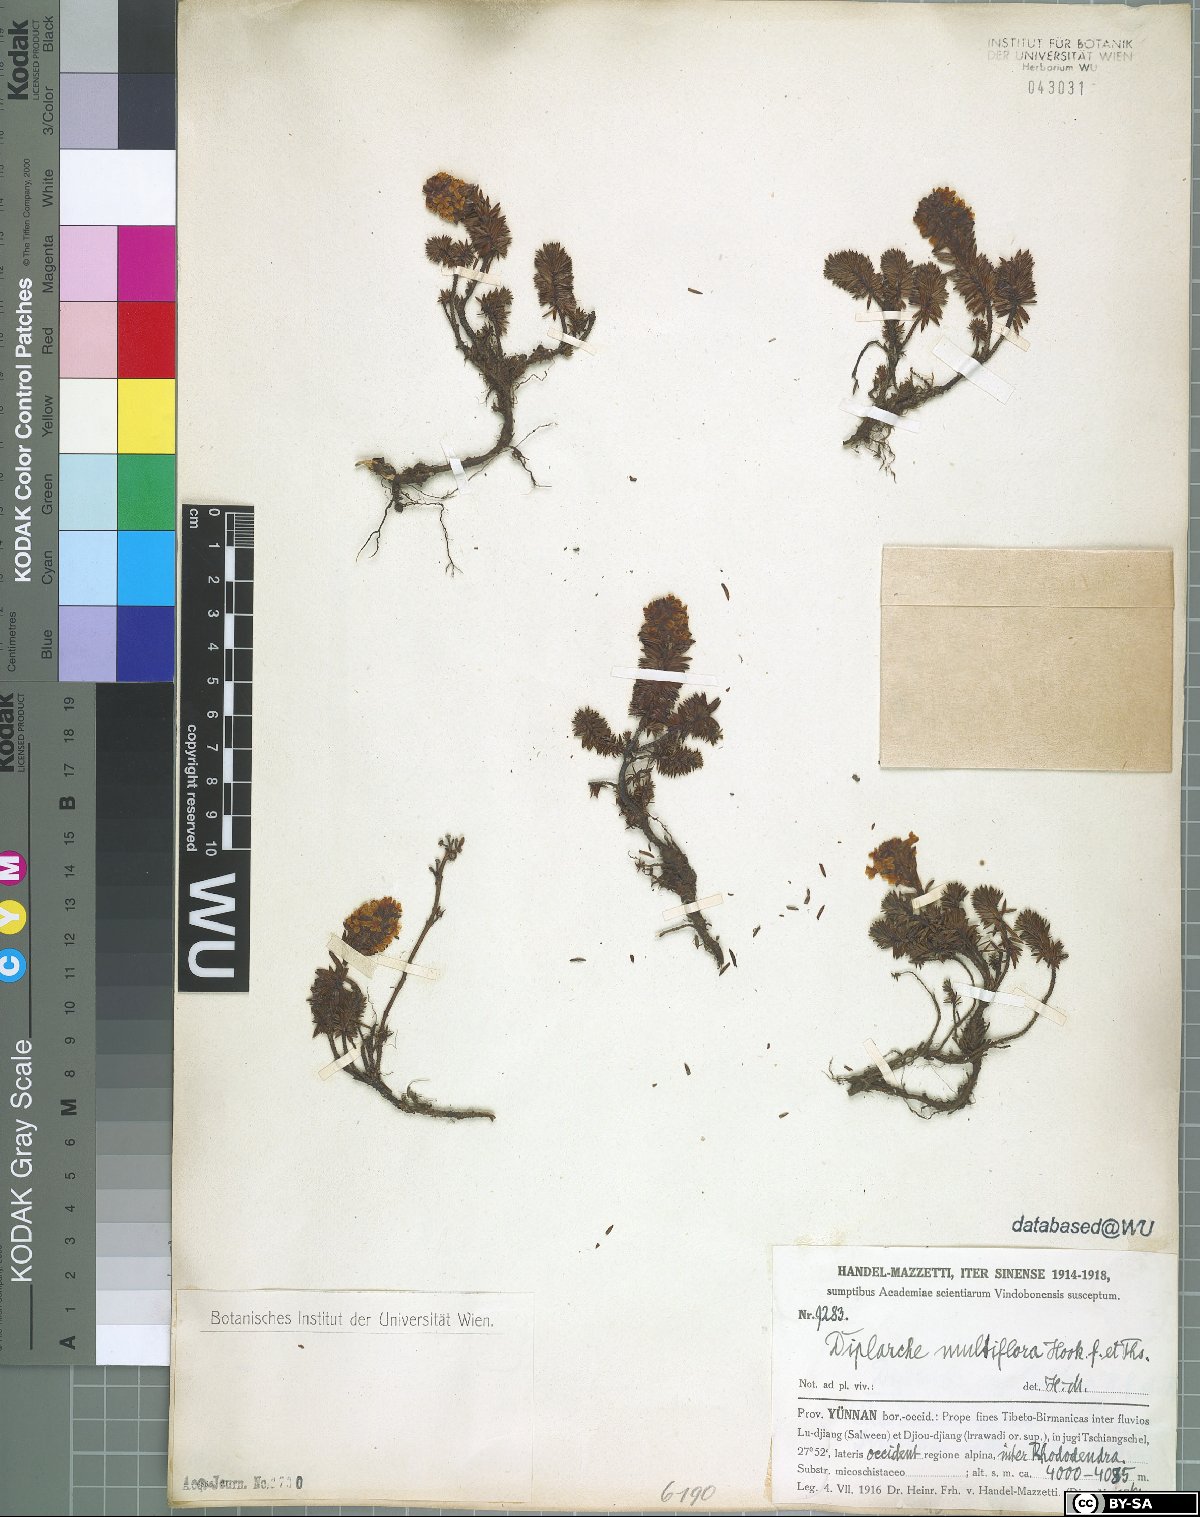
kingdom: Plantae
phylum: Tracheophyta
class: Magnoliopsida
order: Ericales
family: Ericaceae
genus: Rhododendron
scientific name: Rhododendron chamberlainii
